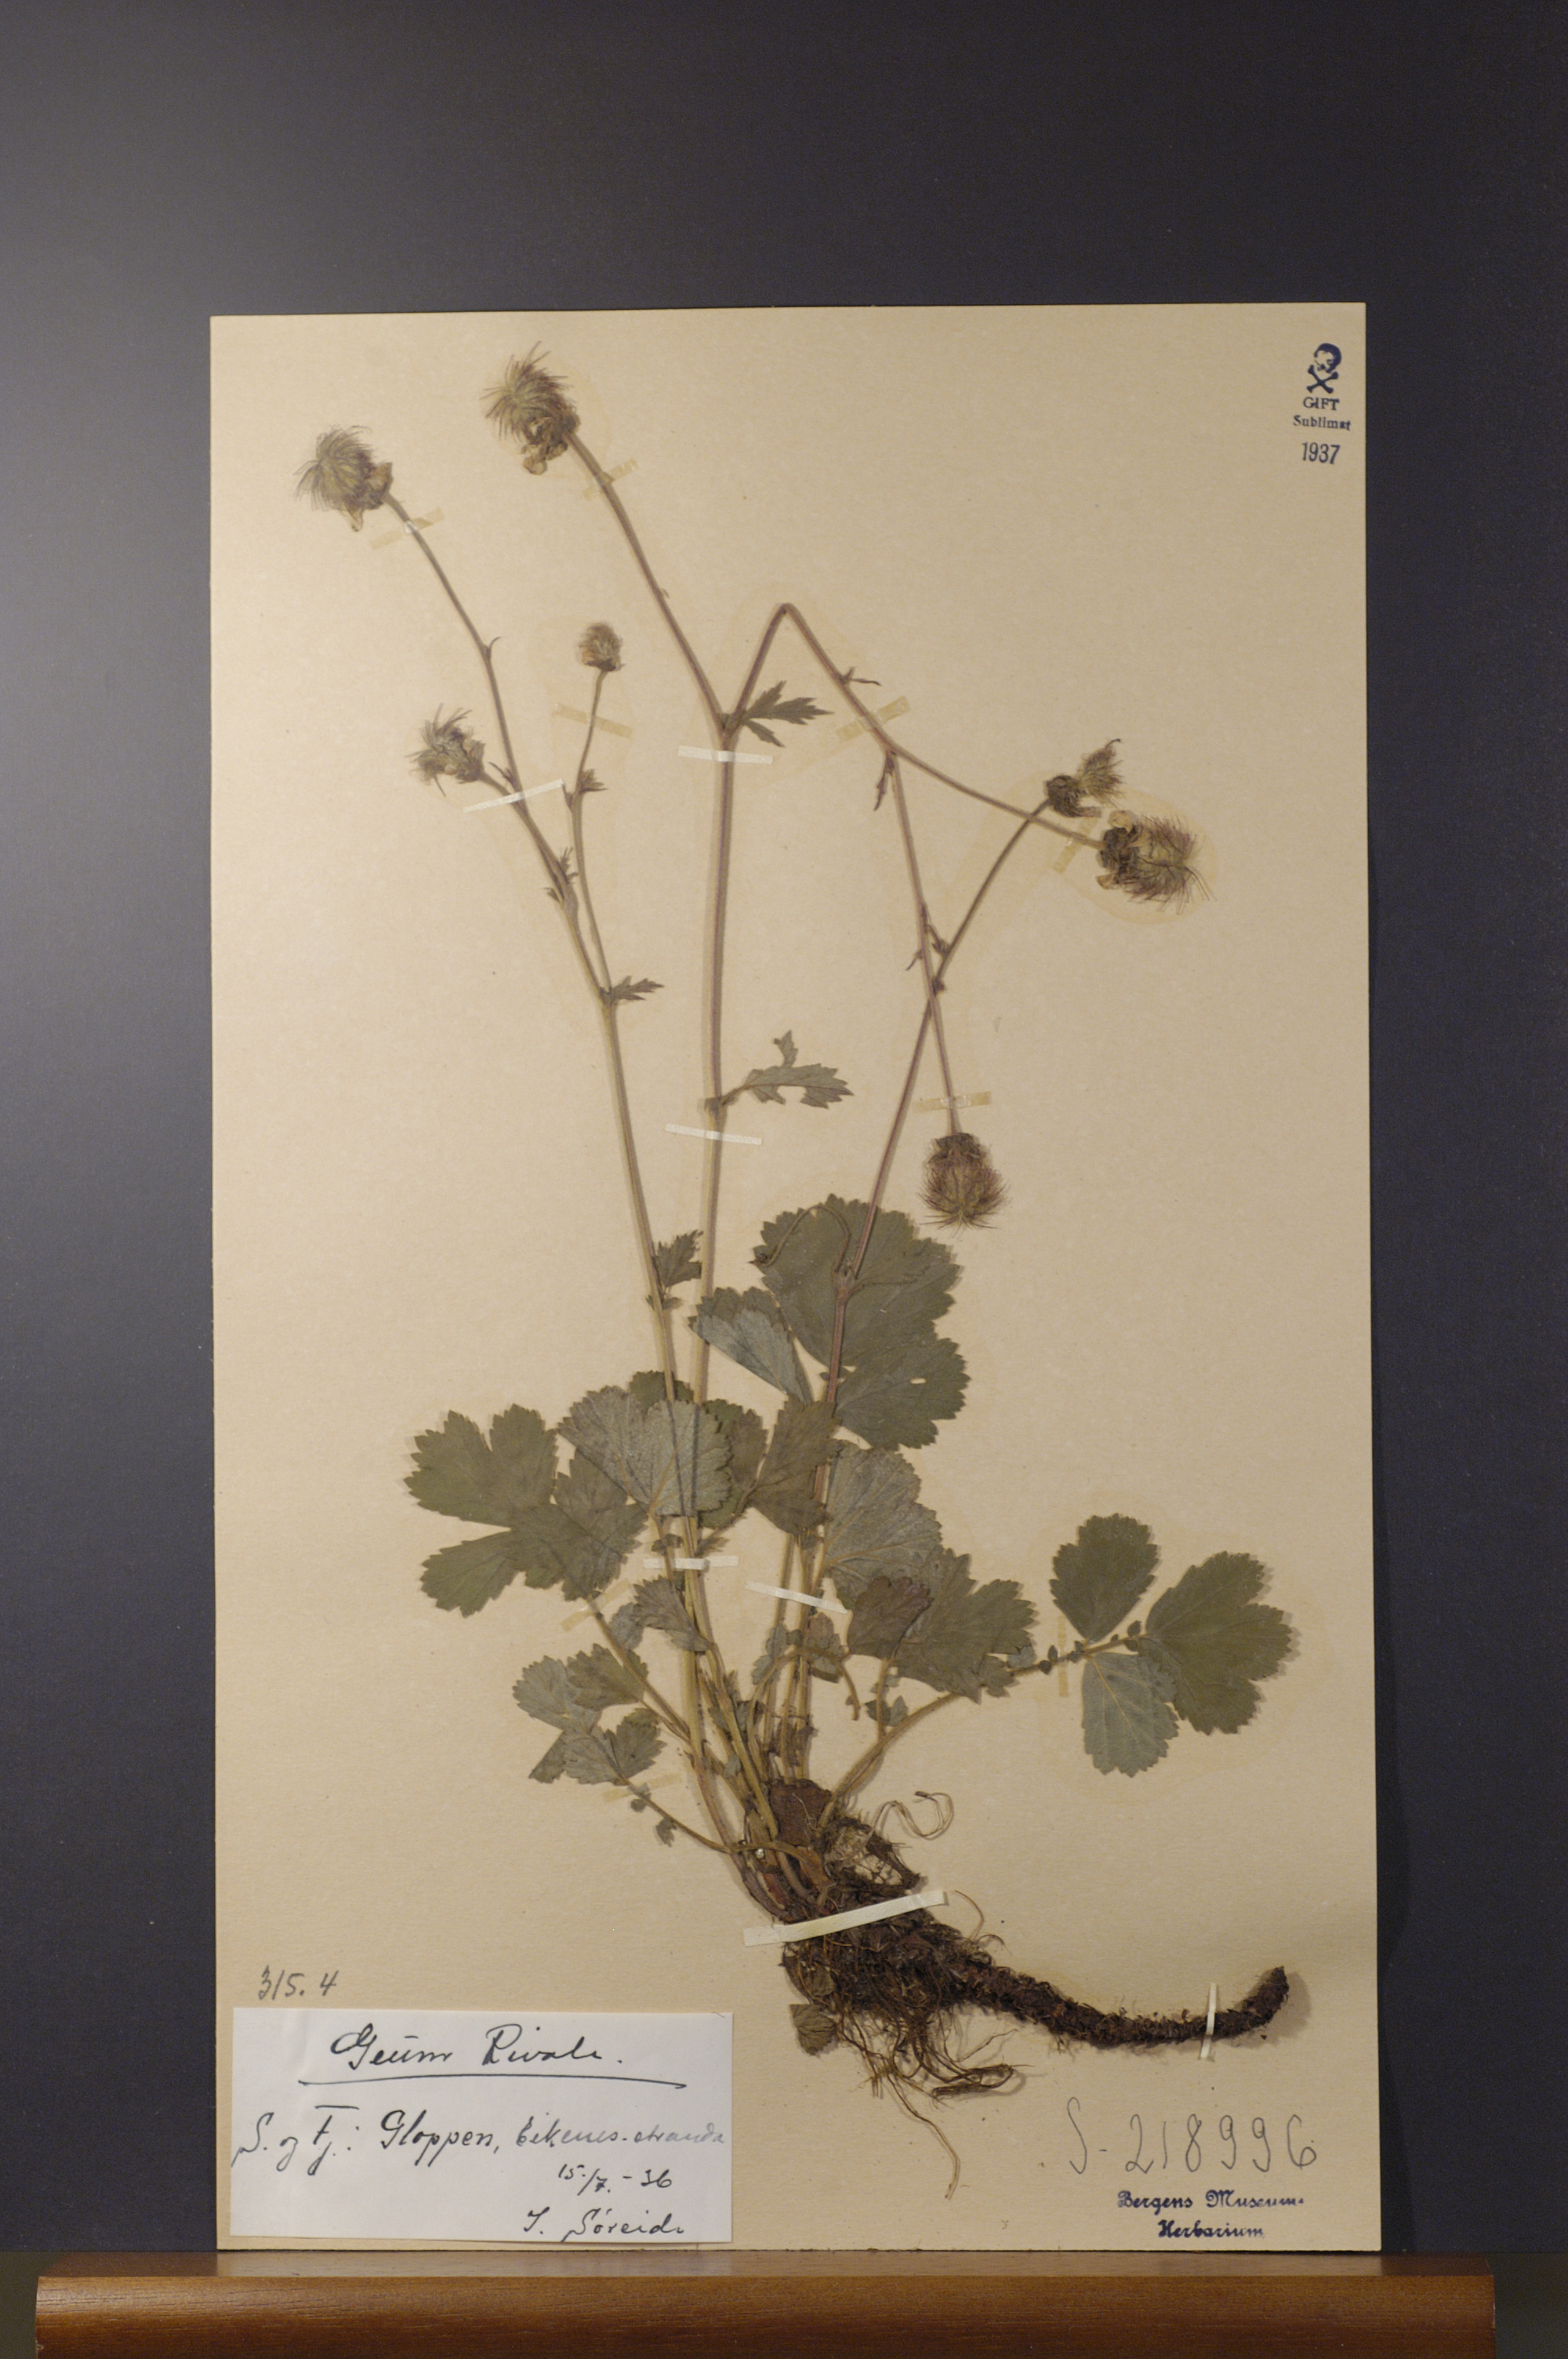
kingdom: Plantae
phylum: Tracheophyta
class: Magnoliopsida
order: Rosales
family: Rosaceae
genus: Geum
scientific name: Geum rivale
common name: Water avens
